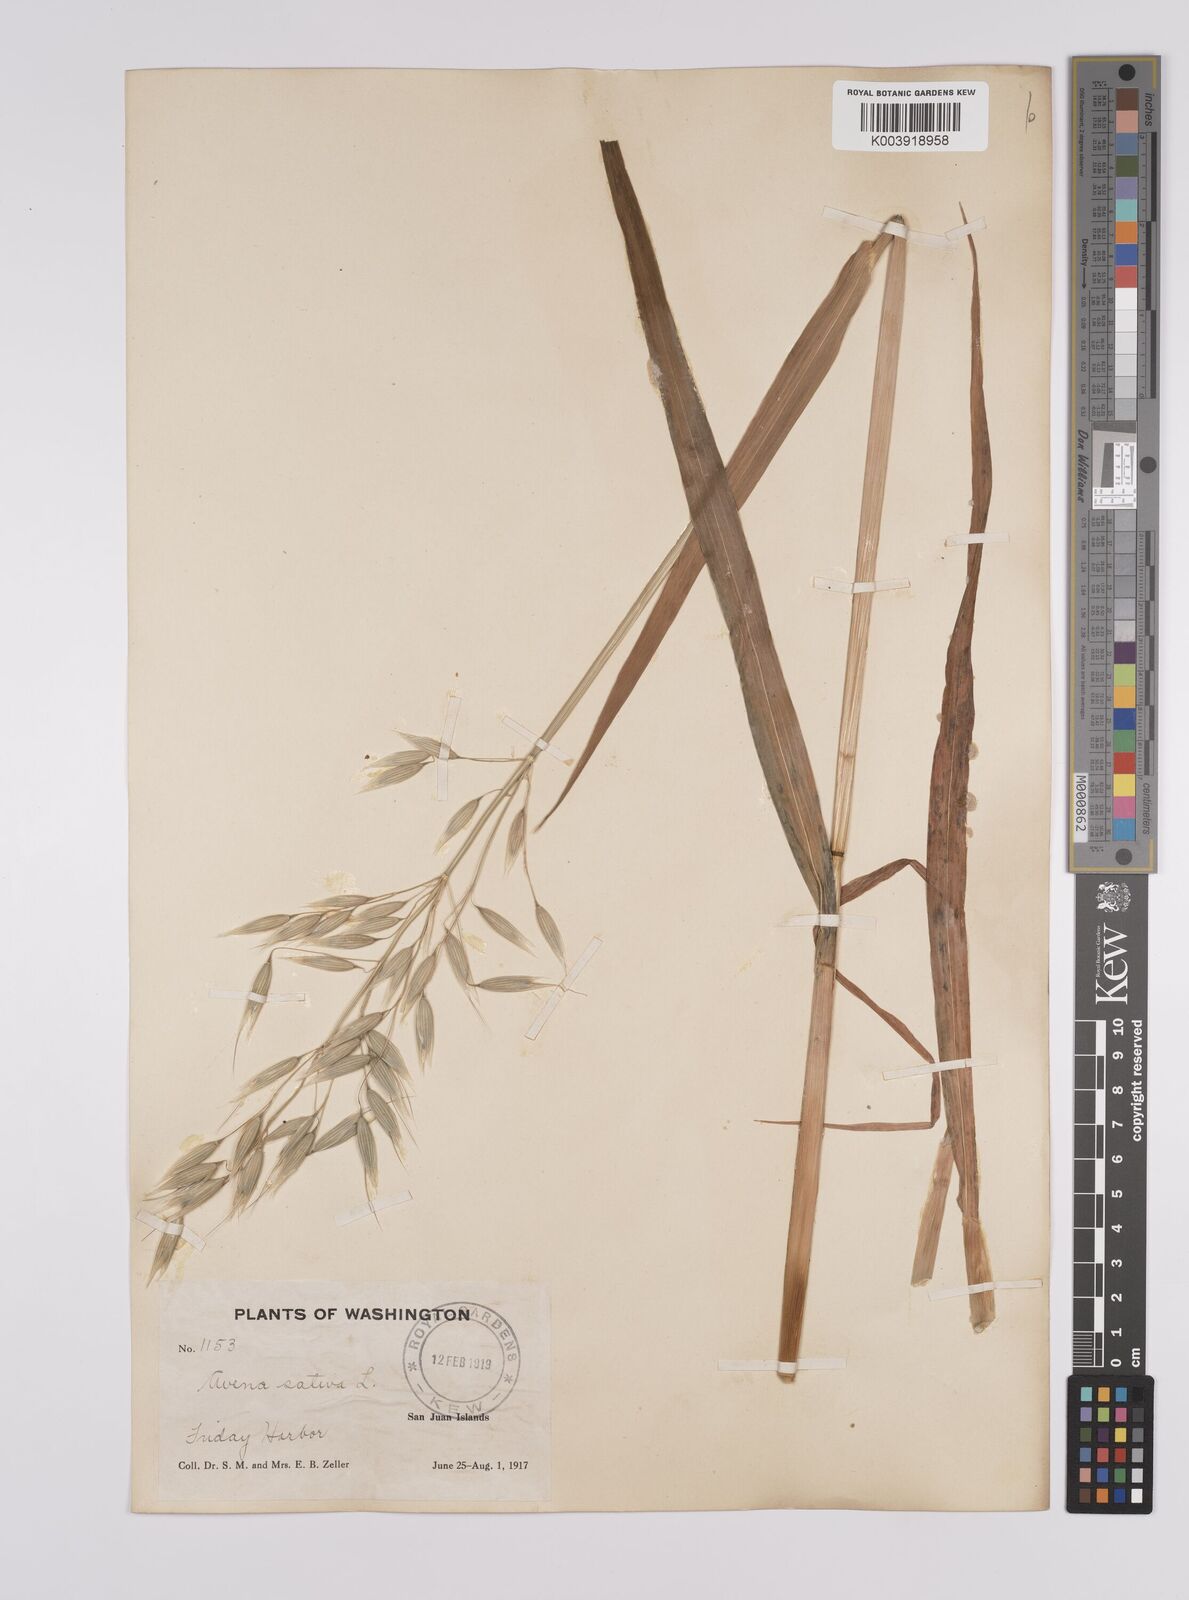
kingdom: Plantae
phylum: Tracheophyta
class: Liliopsida
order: Poales
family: Poaceae
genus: Avena
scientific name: Avena sativa
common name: Oat
